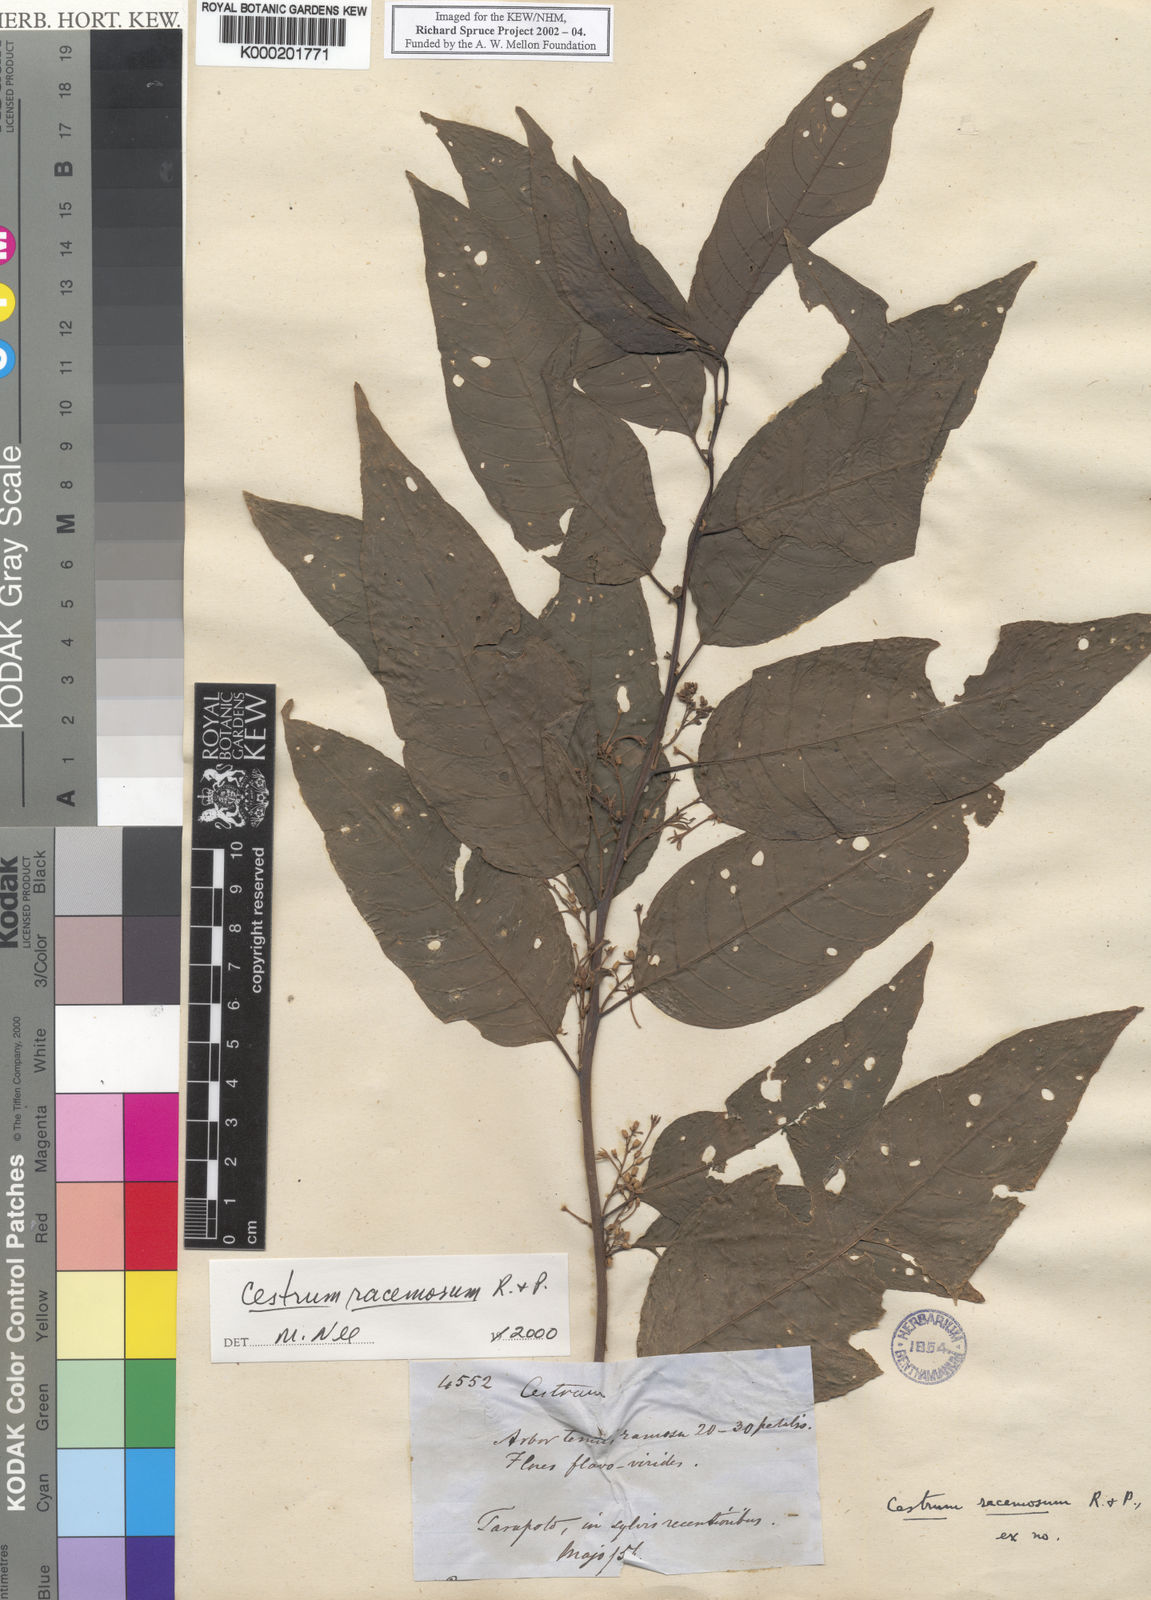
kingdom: Plantae
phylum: Tracheophyta
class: Magnoliopsida
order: Solanales
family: Solanaceae
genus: Cestrum
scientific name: Cestrum racemosum
